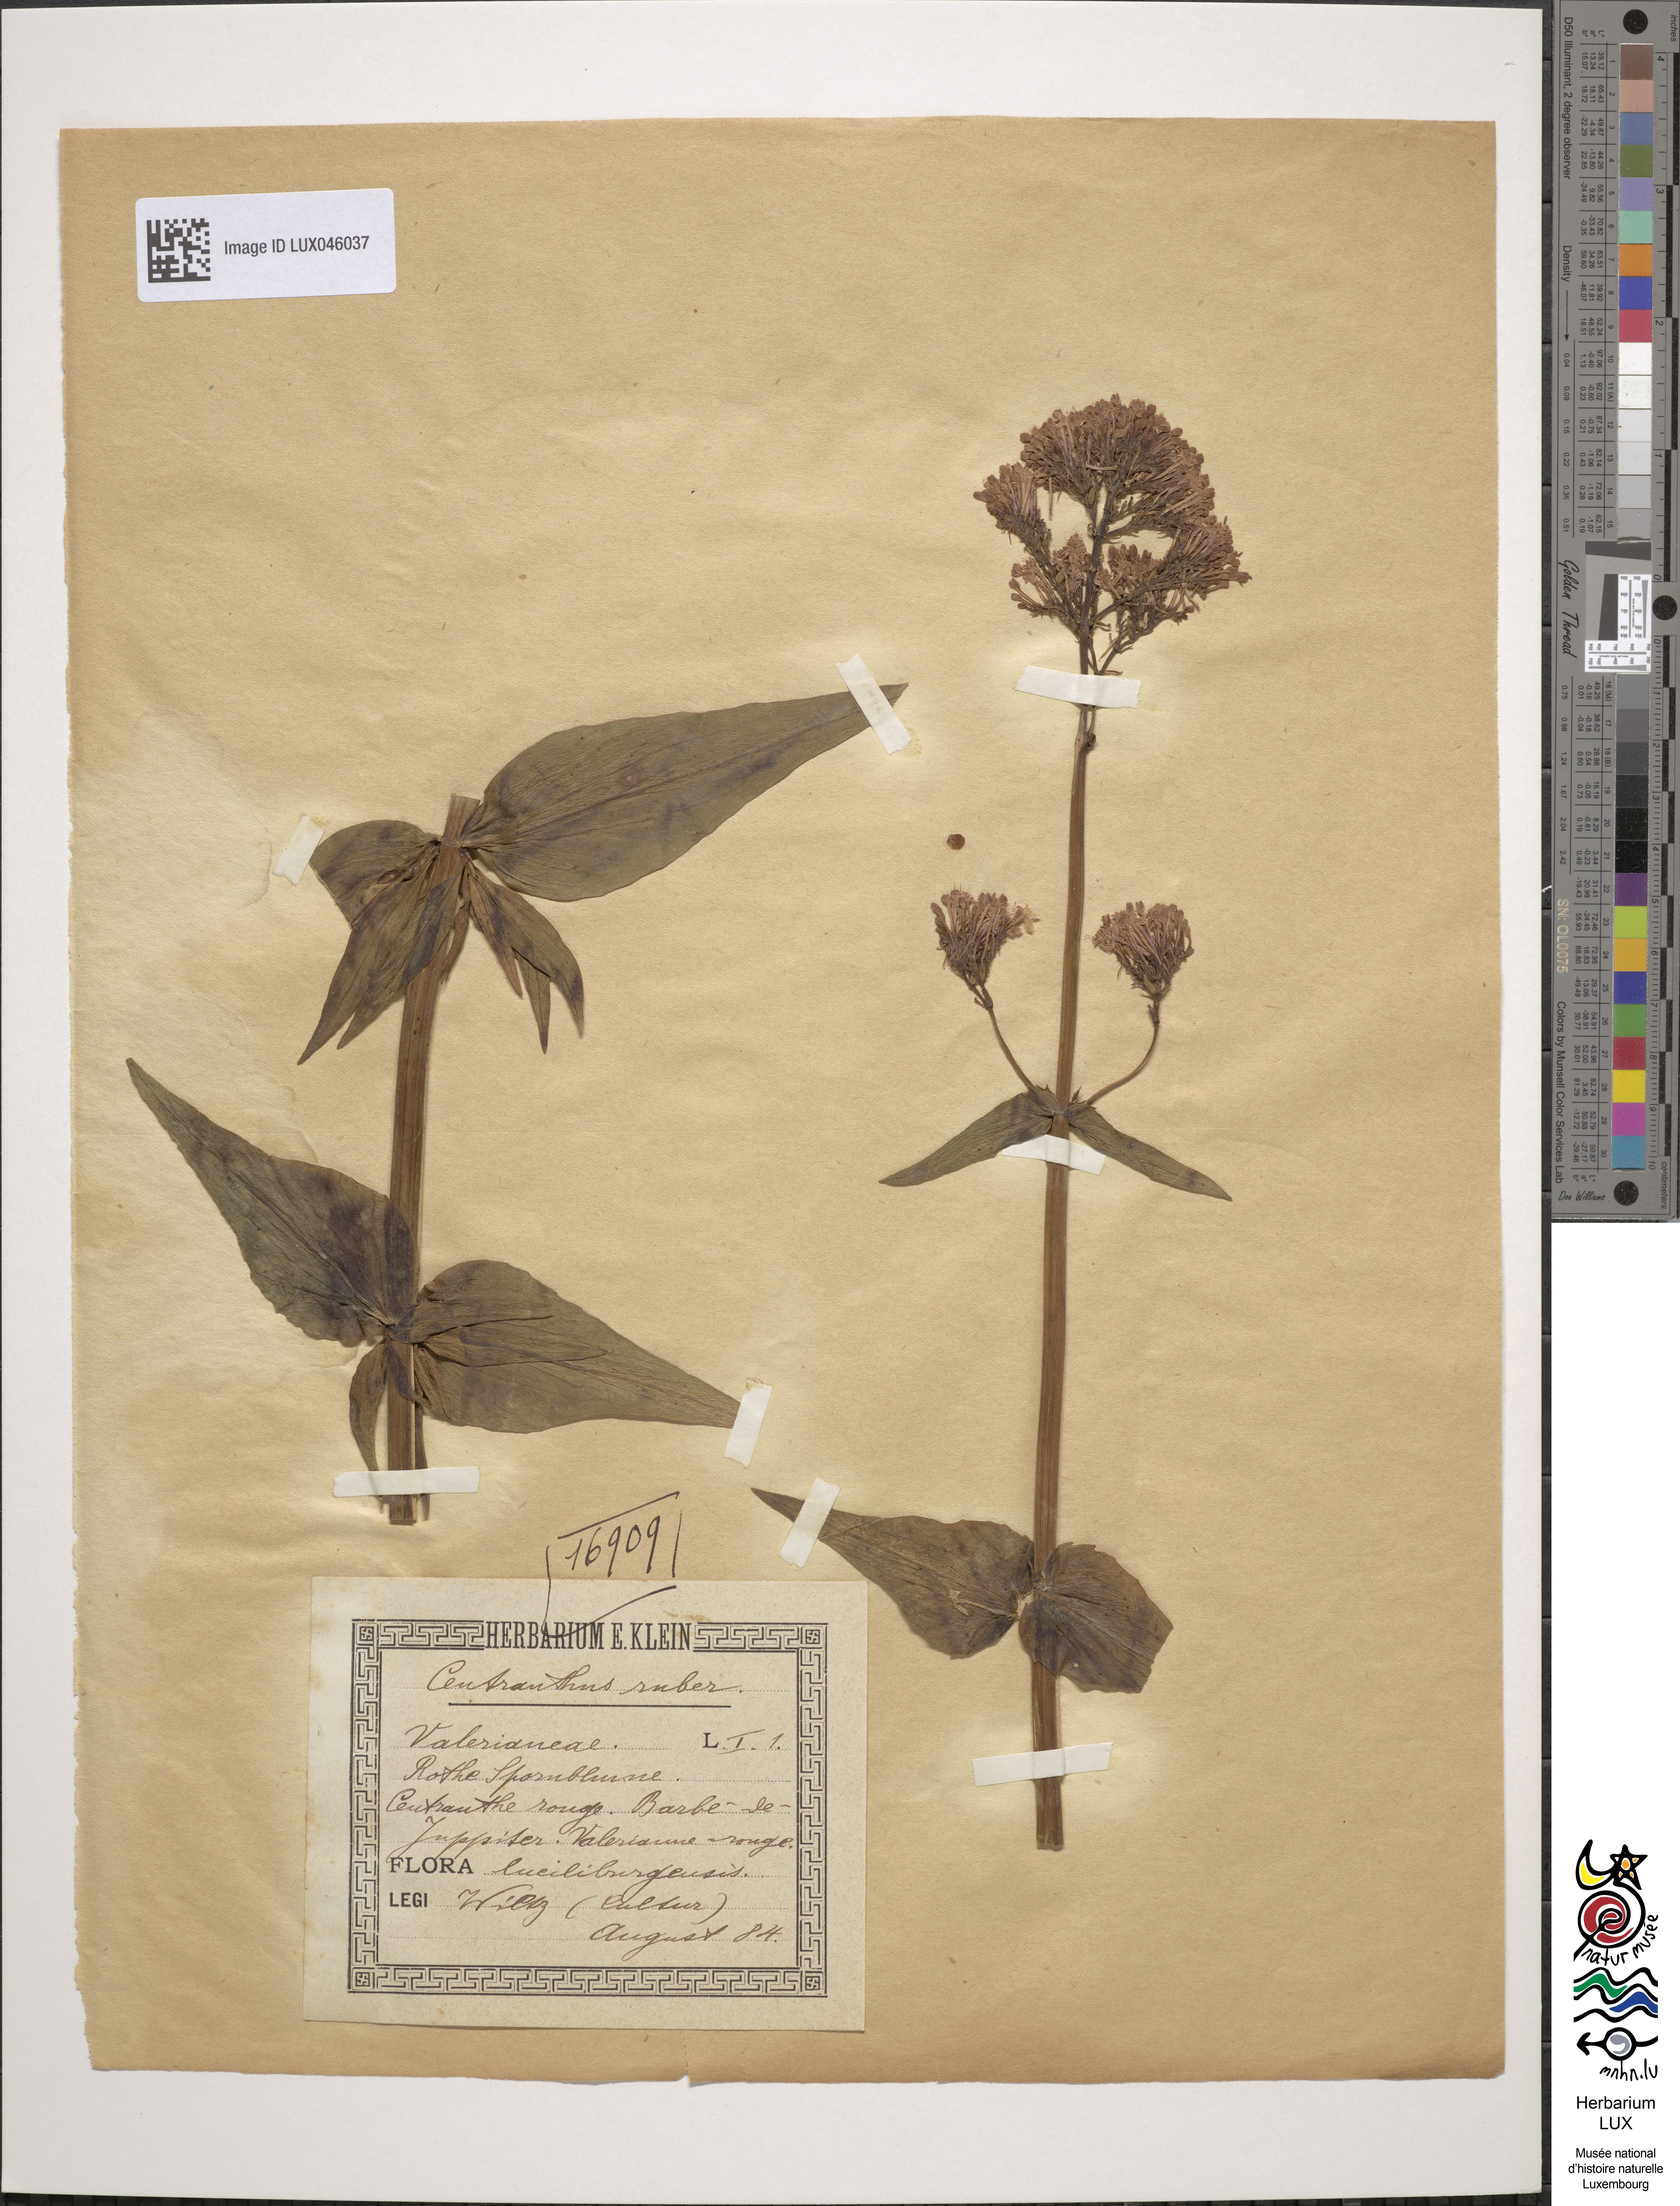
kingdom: Plantae
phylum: Tracheophyta
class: Magnoliopsida
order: Dipsacales
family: Caprifoliaceae
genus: Centranthus
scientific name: Centranthus ruber
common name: Red valerian
